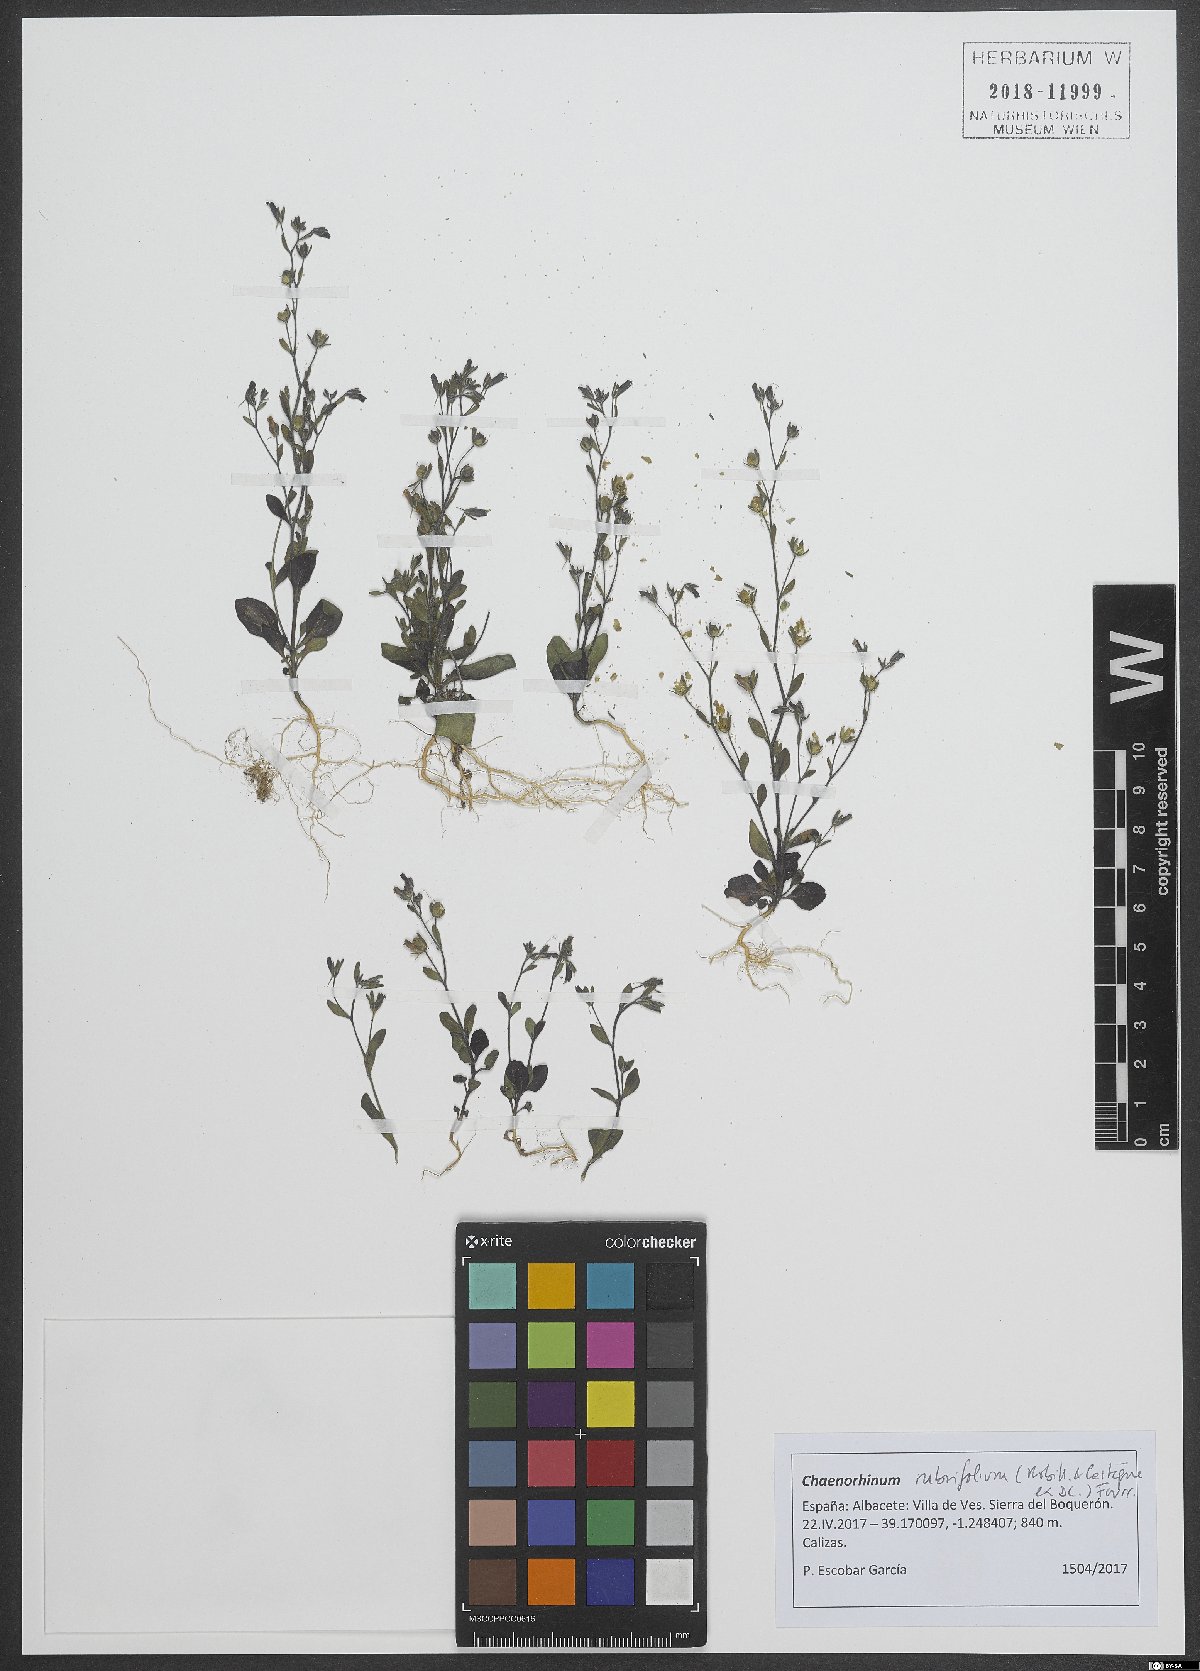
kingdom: Plantae
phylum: Tracheophyta
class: Magnoliopsida
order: Lamiales
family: Plantaginaceae
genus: Chaenorhinum
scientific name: Chaenorhinum rubrifolium
